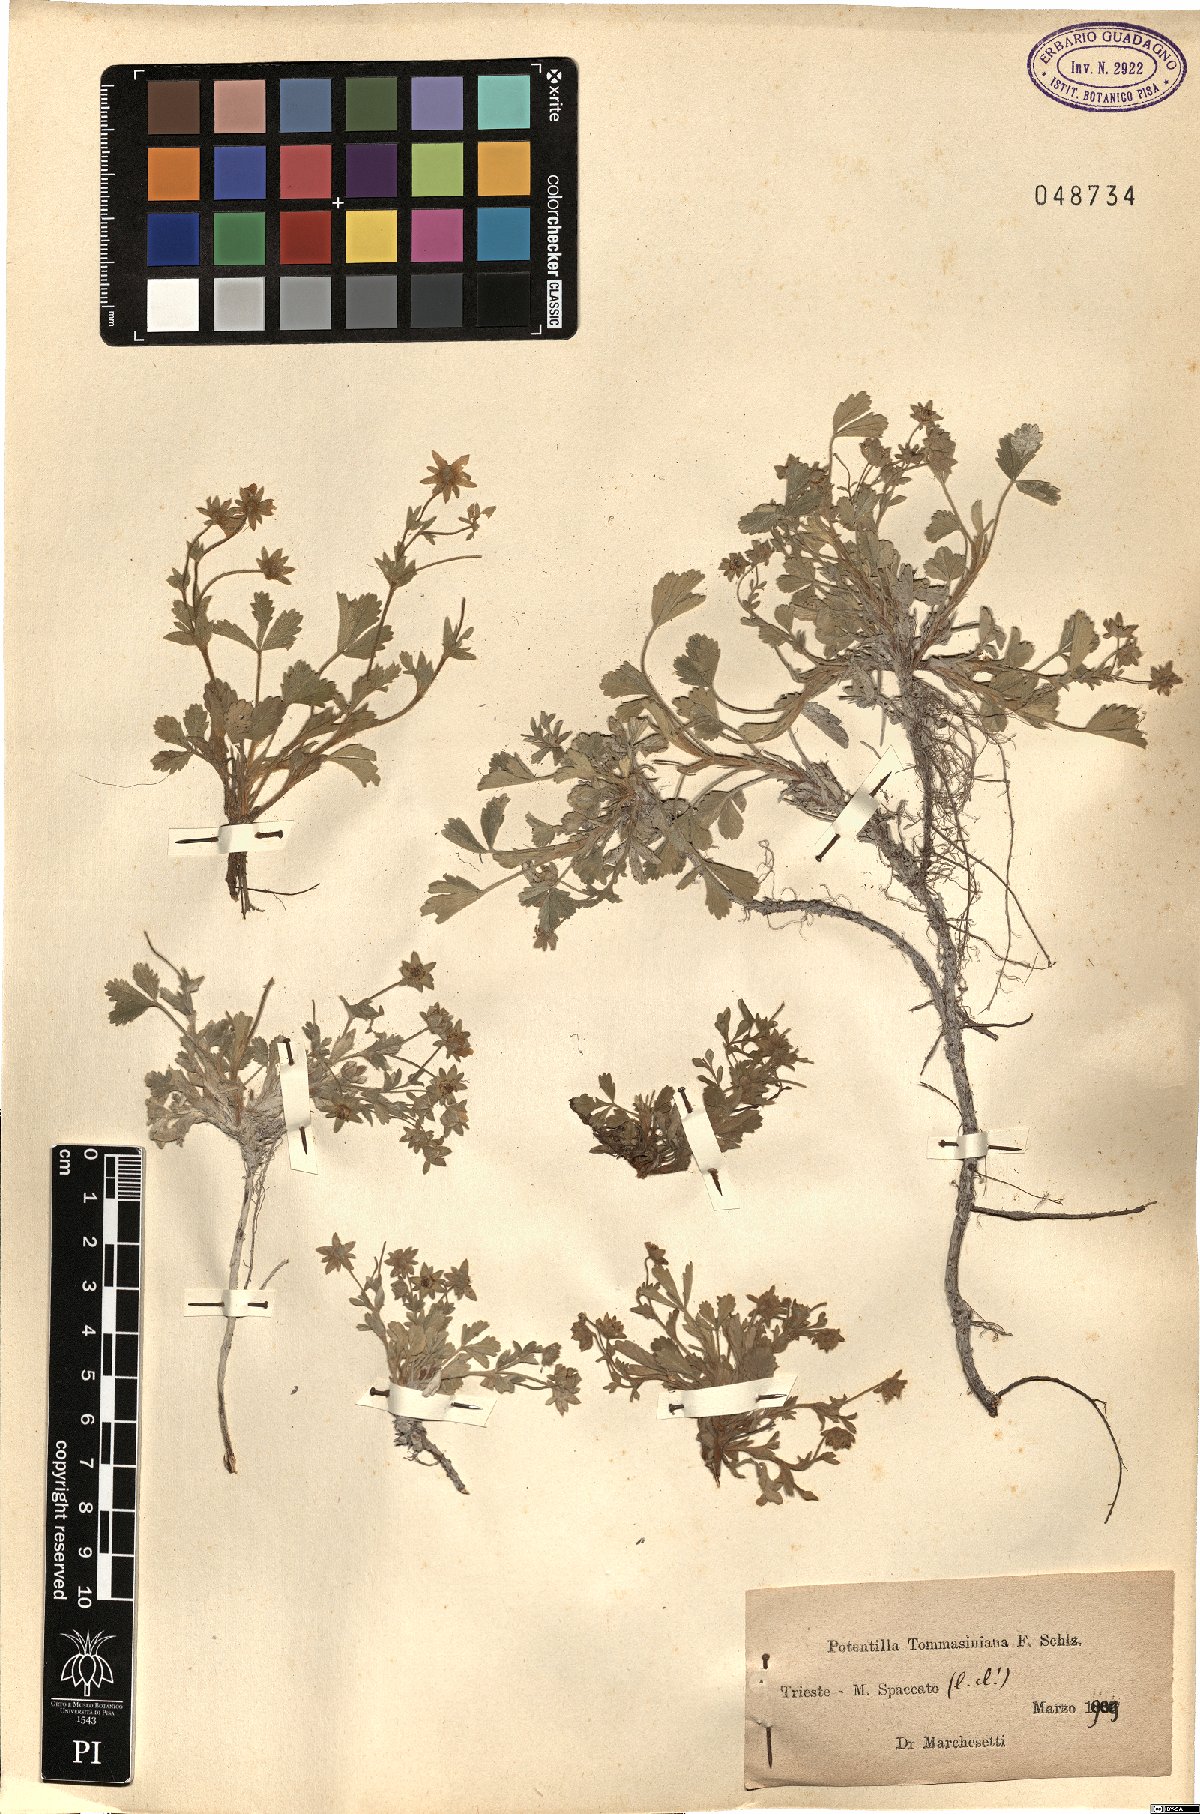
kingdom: Plantae
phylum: Tracheophyta
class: Magnoliopsida
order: Rosales
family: Rosaceae
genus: Potentilla
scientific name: Potentilla cinerea
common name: Ashy cinquefoil
